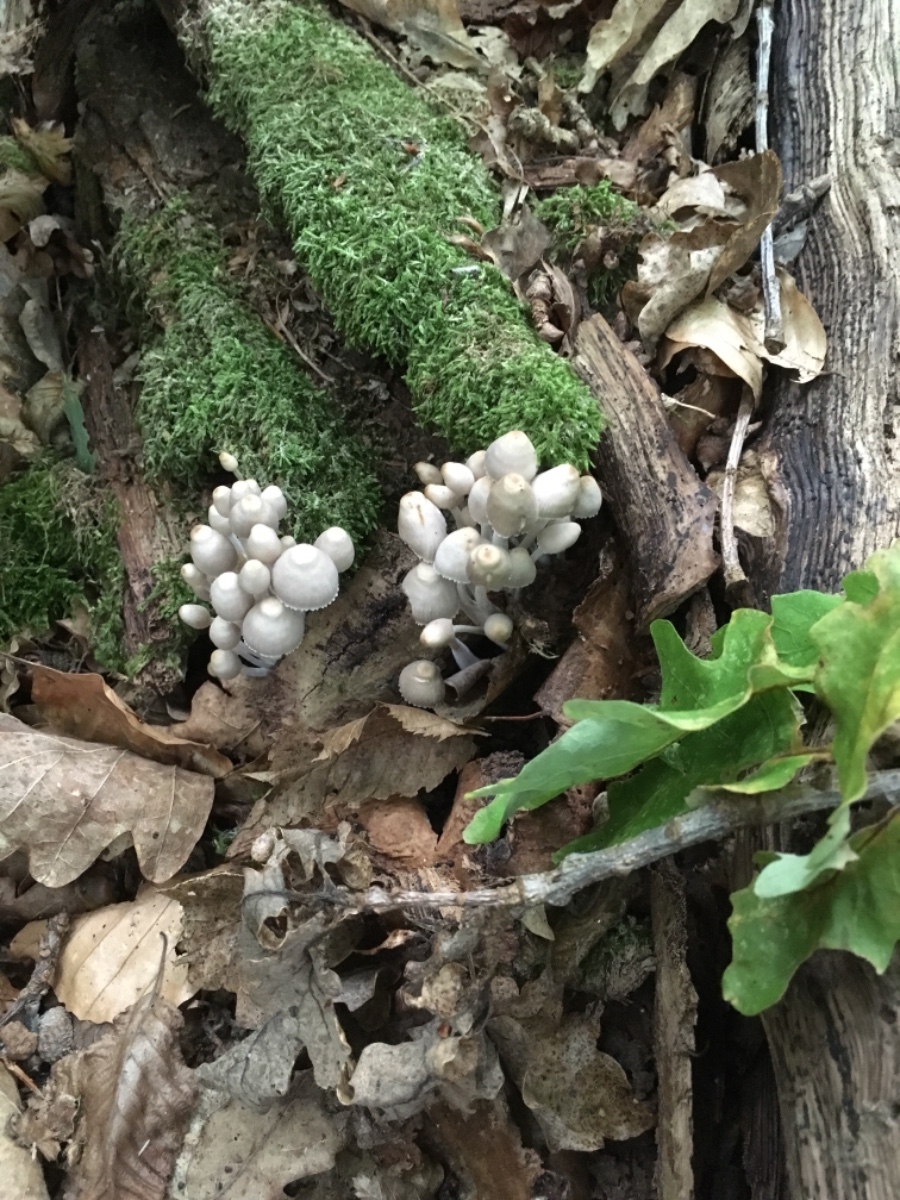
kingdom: Fungi
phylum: Basidiomycota
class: Agaricomycetes
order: Agaricales
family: Mycenaceae
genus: Mycena
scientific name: Mycena inclinata
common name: nikkende huesvamp
